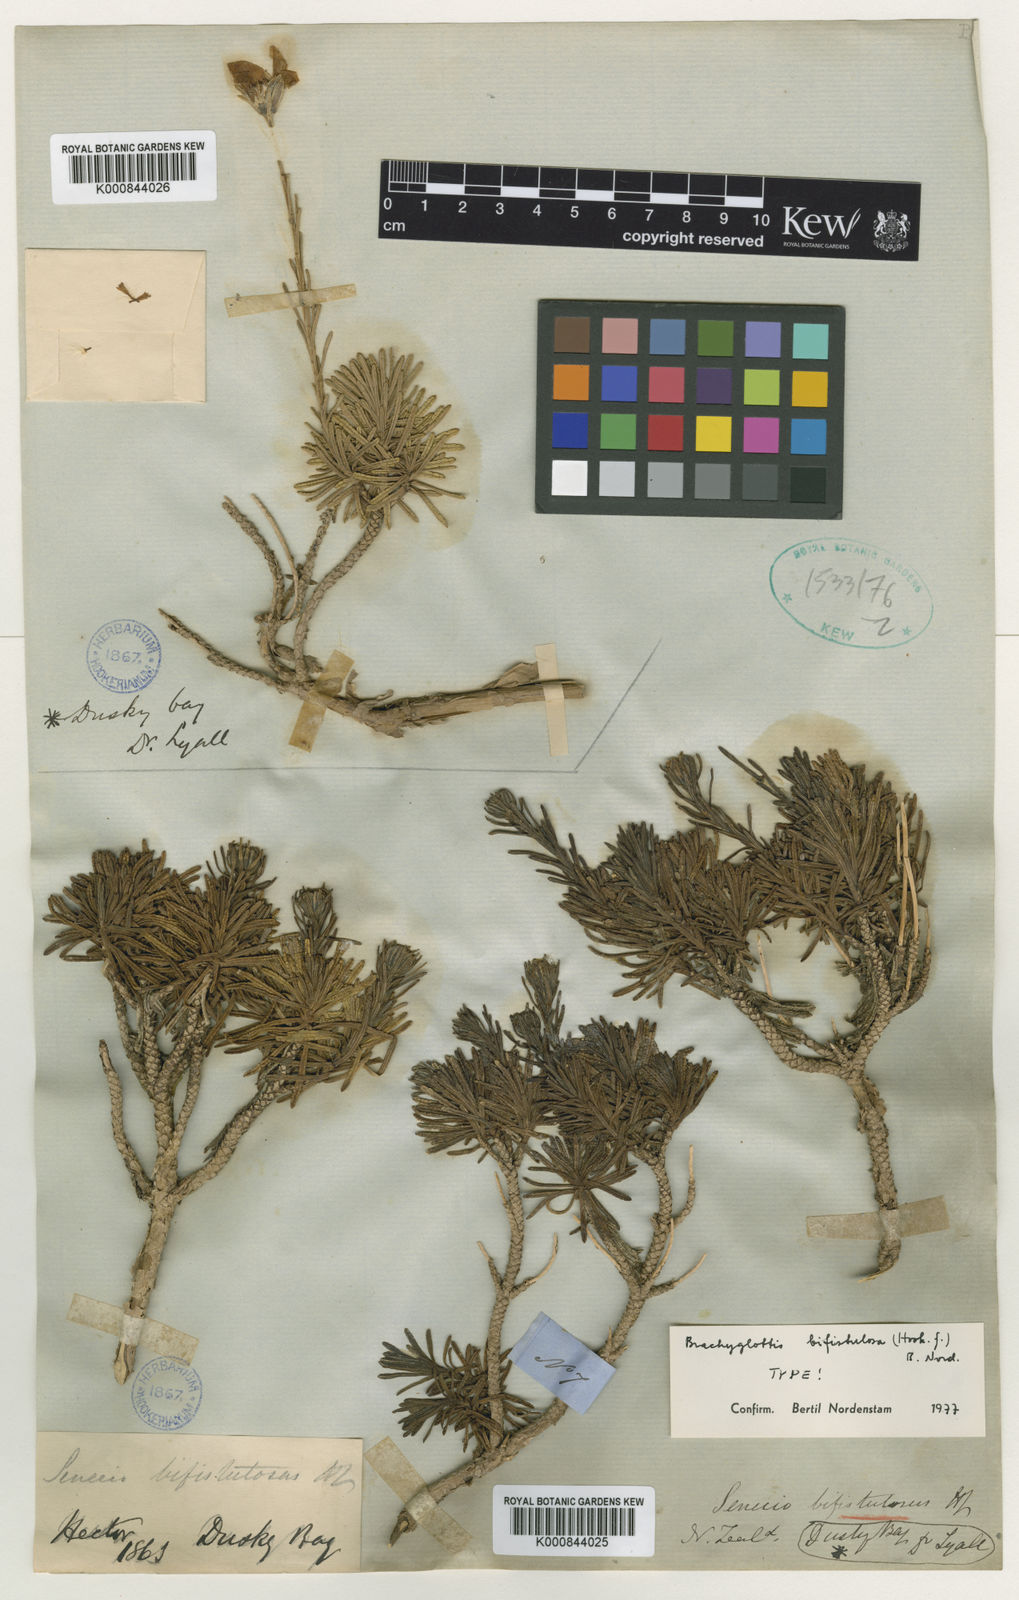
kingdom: Plantae
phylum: Tracheophyta
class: Magnoliopsida
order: Asterales
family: Asteraceae
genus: Brachyglottis
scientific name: Brachyglottis bifistulosa
